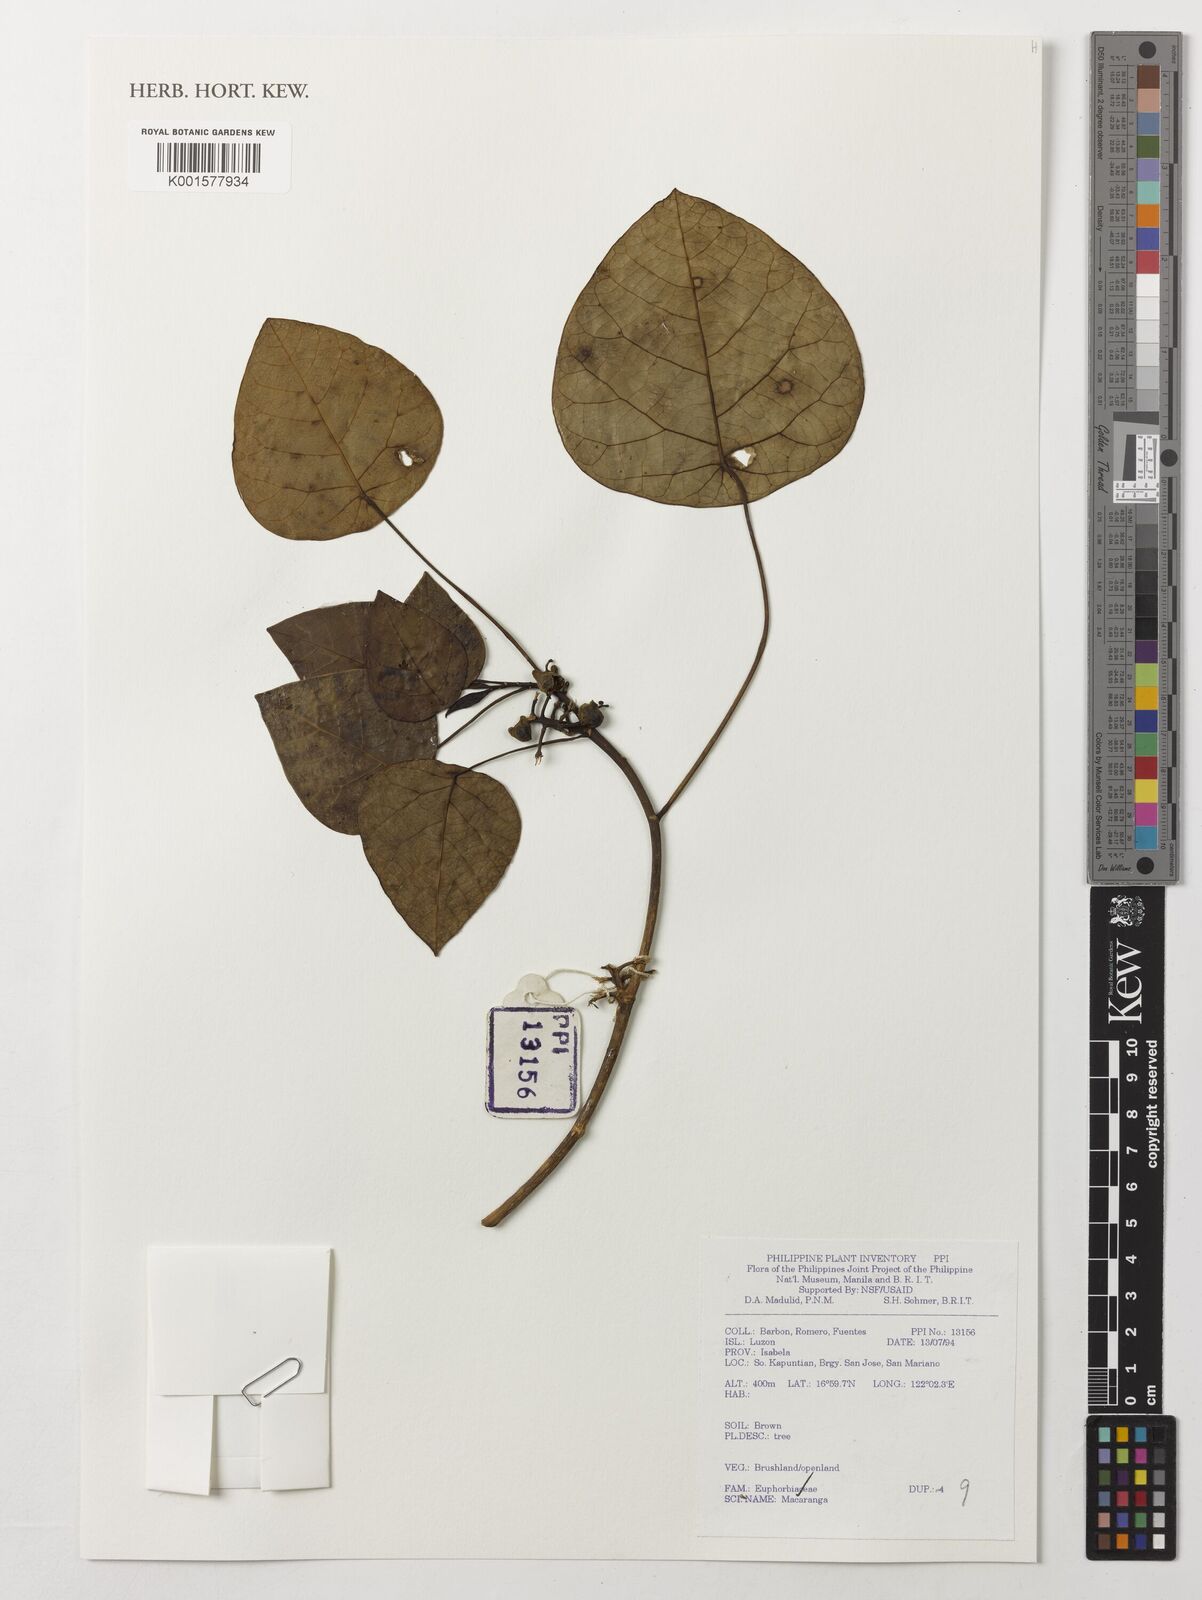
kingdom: Plantae
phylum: Tracheophyta
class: Magnoliopsida
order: Malpighiales
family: Euphorbiaceae
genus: Macaranga
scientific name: Macaranga
